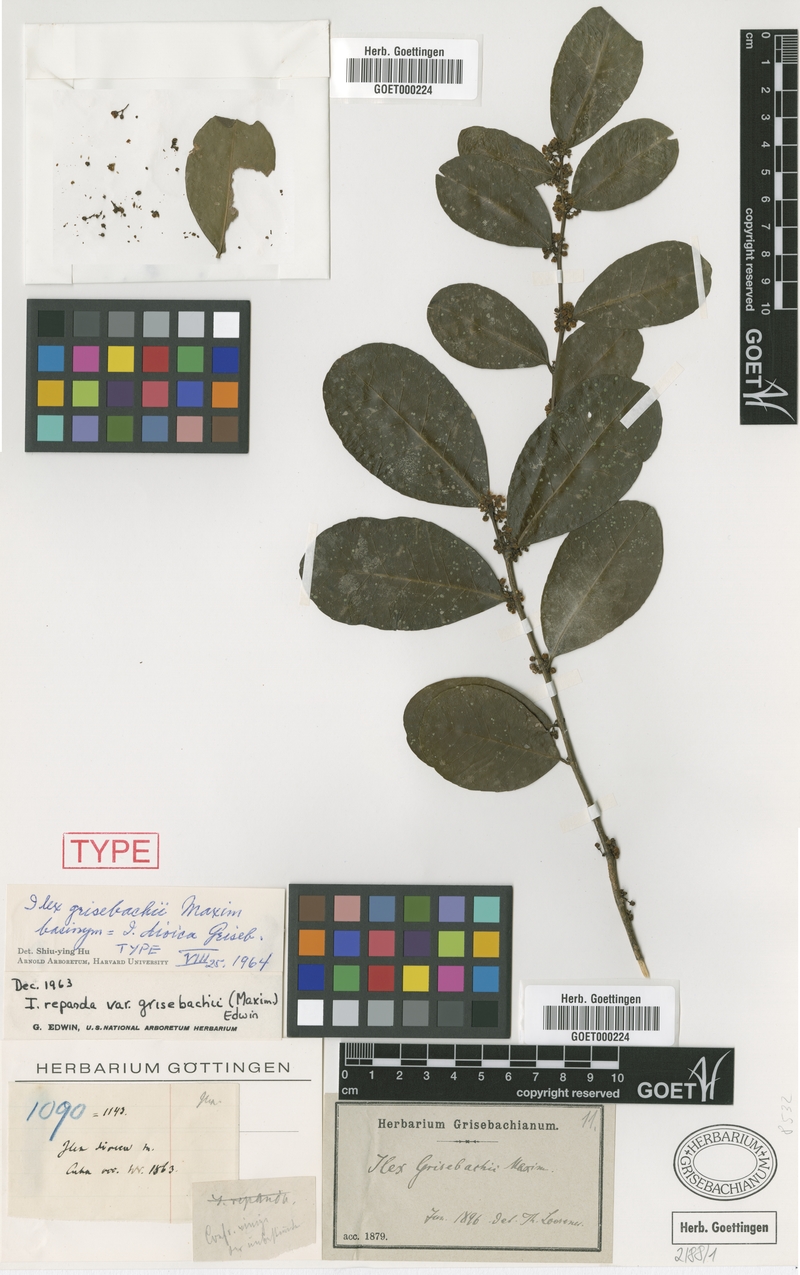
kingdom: Plantae
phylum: Tracheophyta
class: Magnoliopsida
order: Aquifoliales
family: Aquifoliaceae
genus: Ilex
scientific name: Ilex nitida
